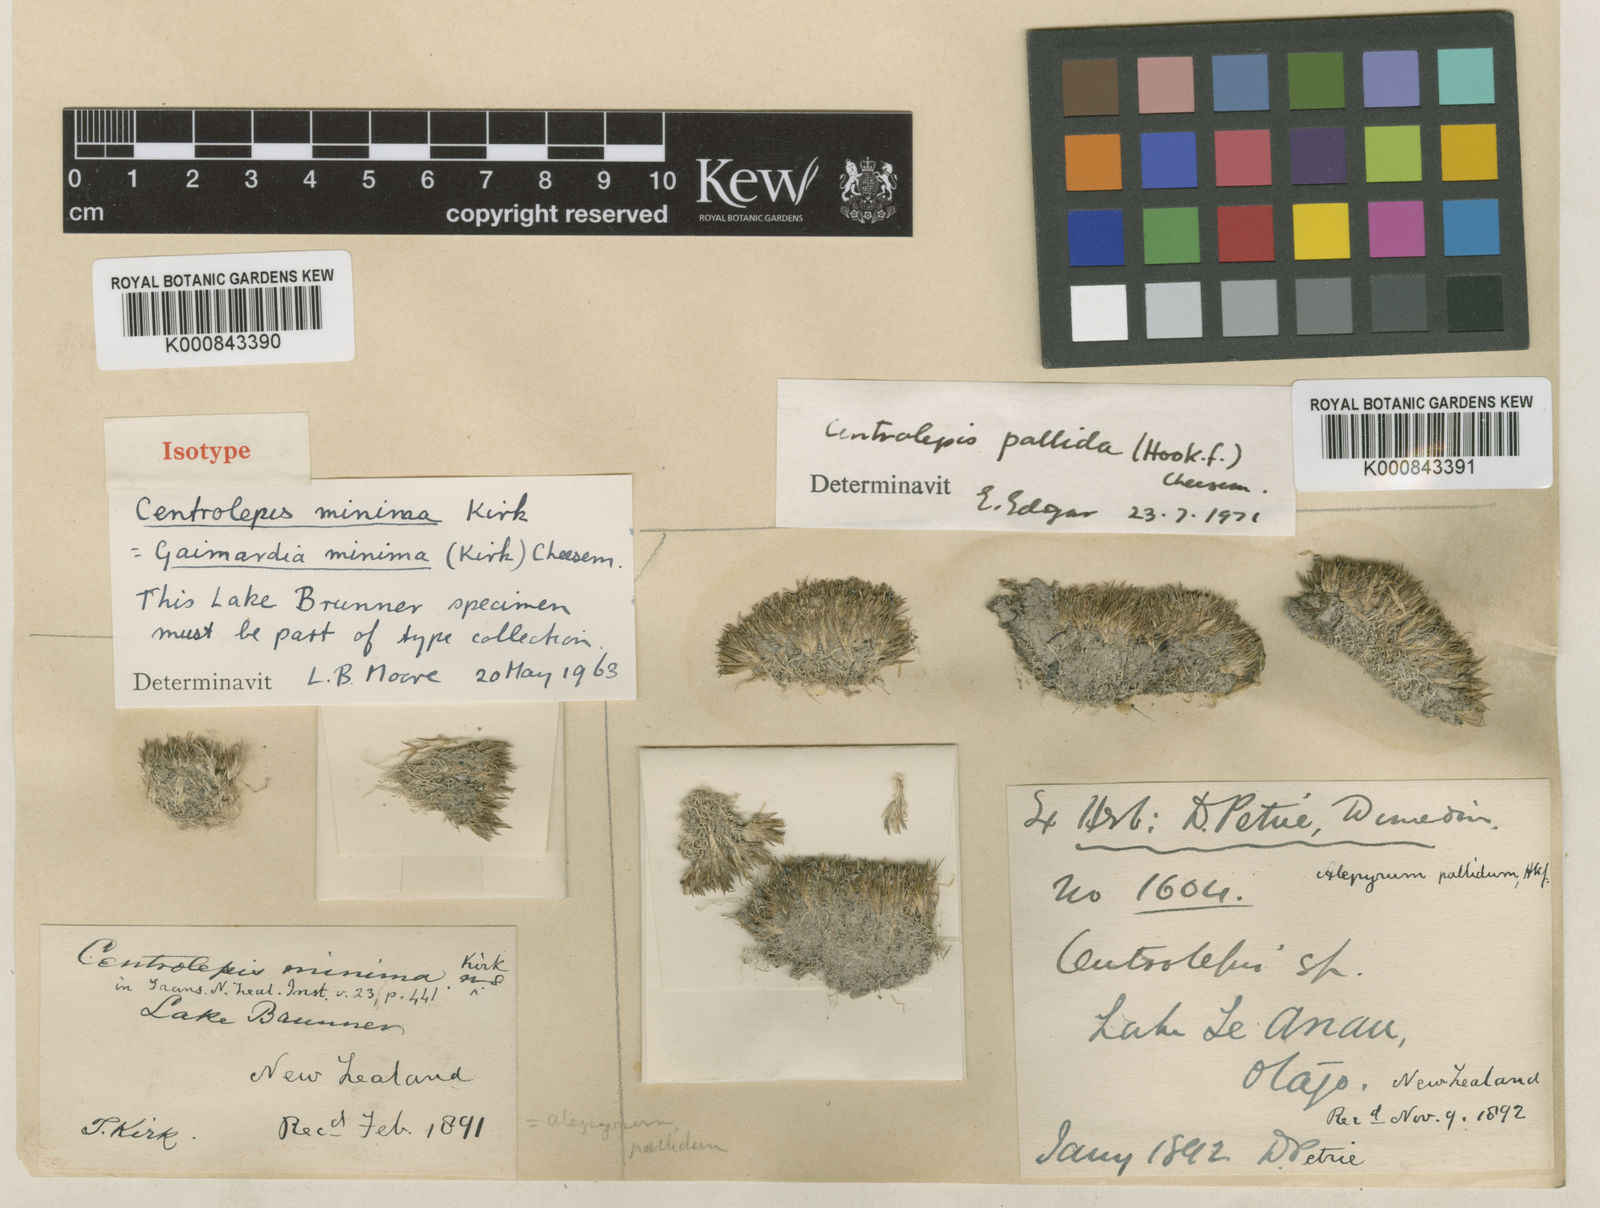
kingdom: Plantae
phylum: Tracheophyta
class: Liliopsida
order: Poales
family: Restionaceae
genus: Centrolepis
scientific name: Centrolepis pallida
